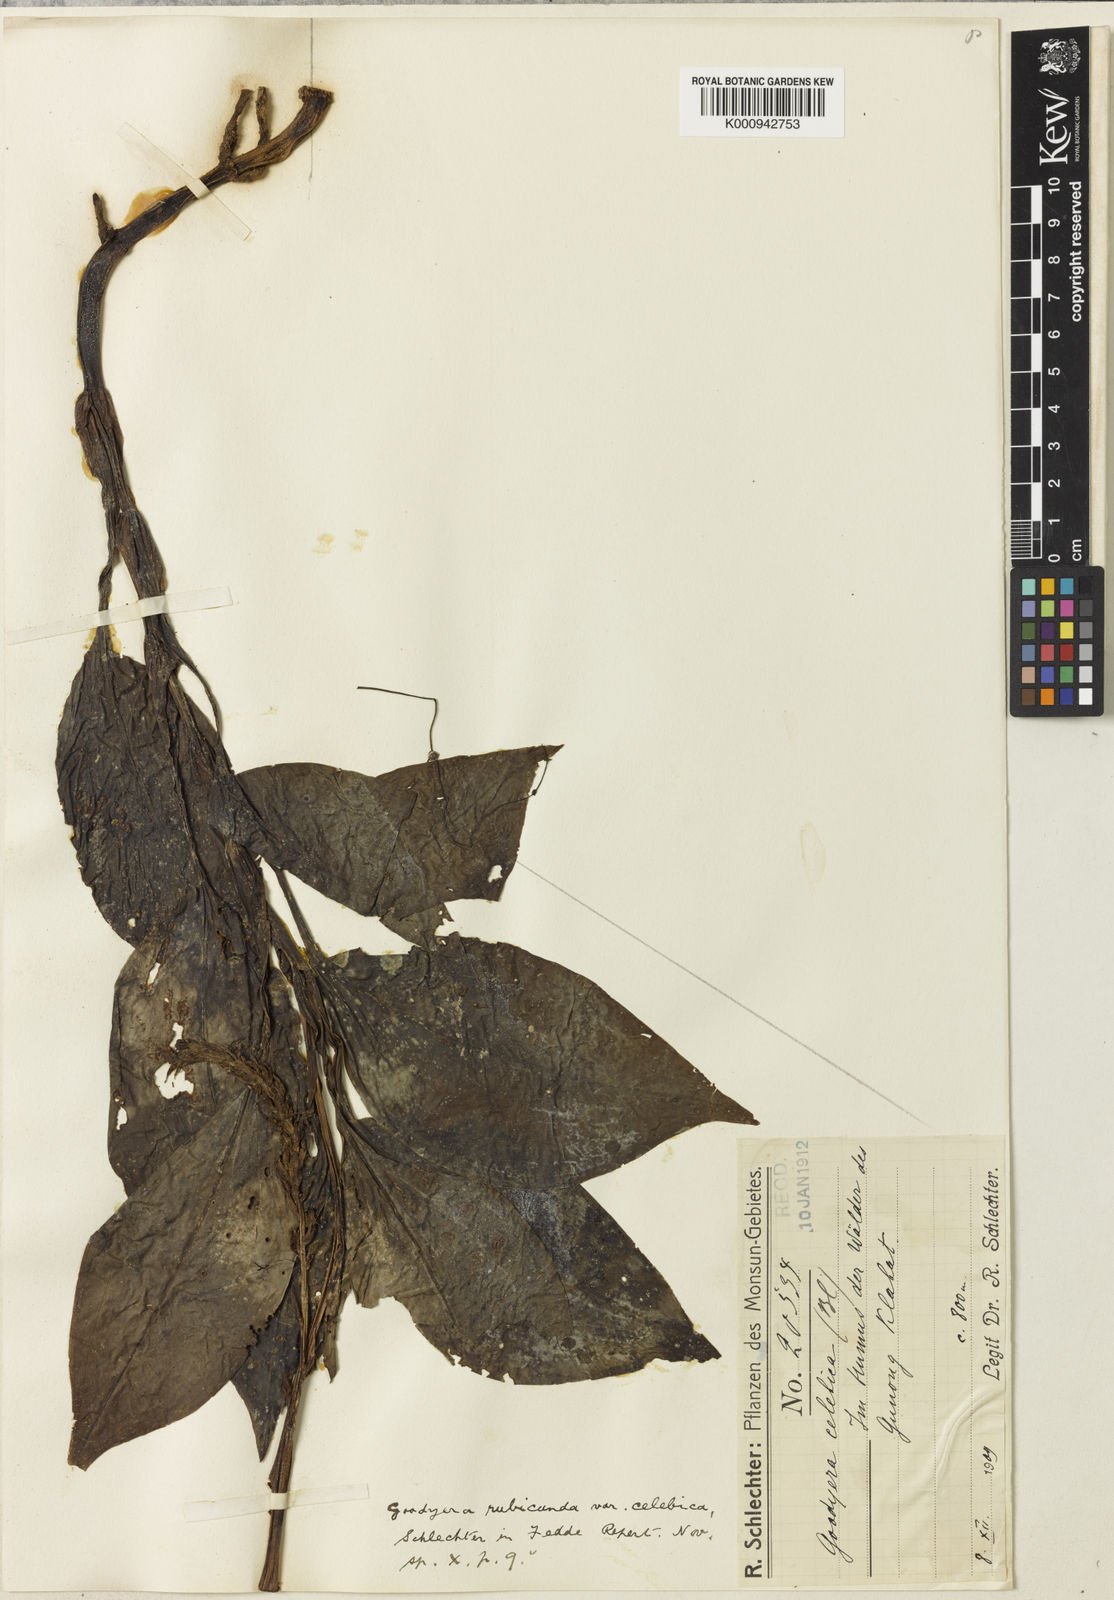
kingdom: Plantae
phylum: Tracheophyta
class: Liliopsida
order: Asparagales
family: Orchidaceae
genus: Goodyera
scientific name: Goodyera rubicunda
